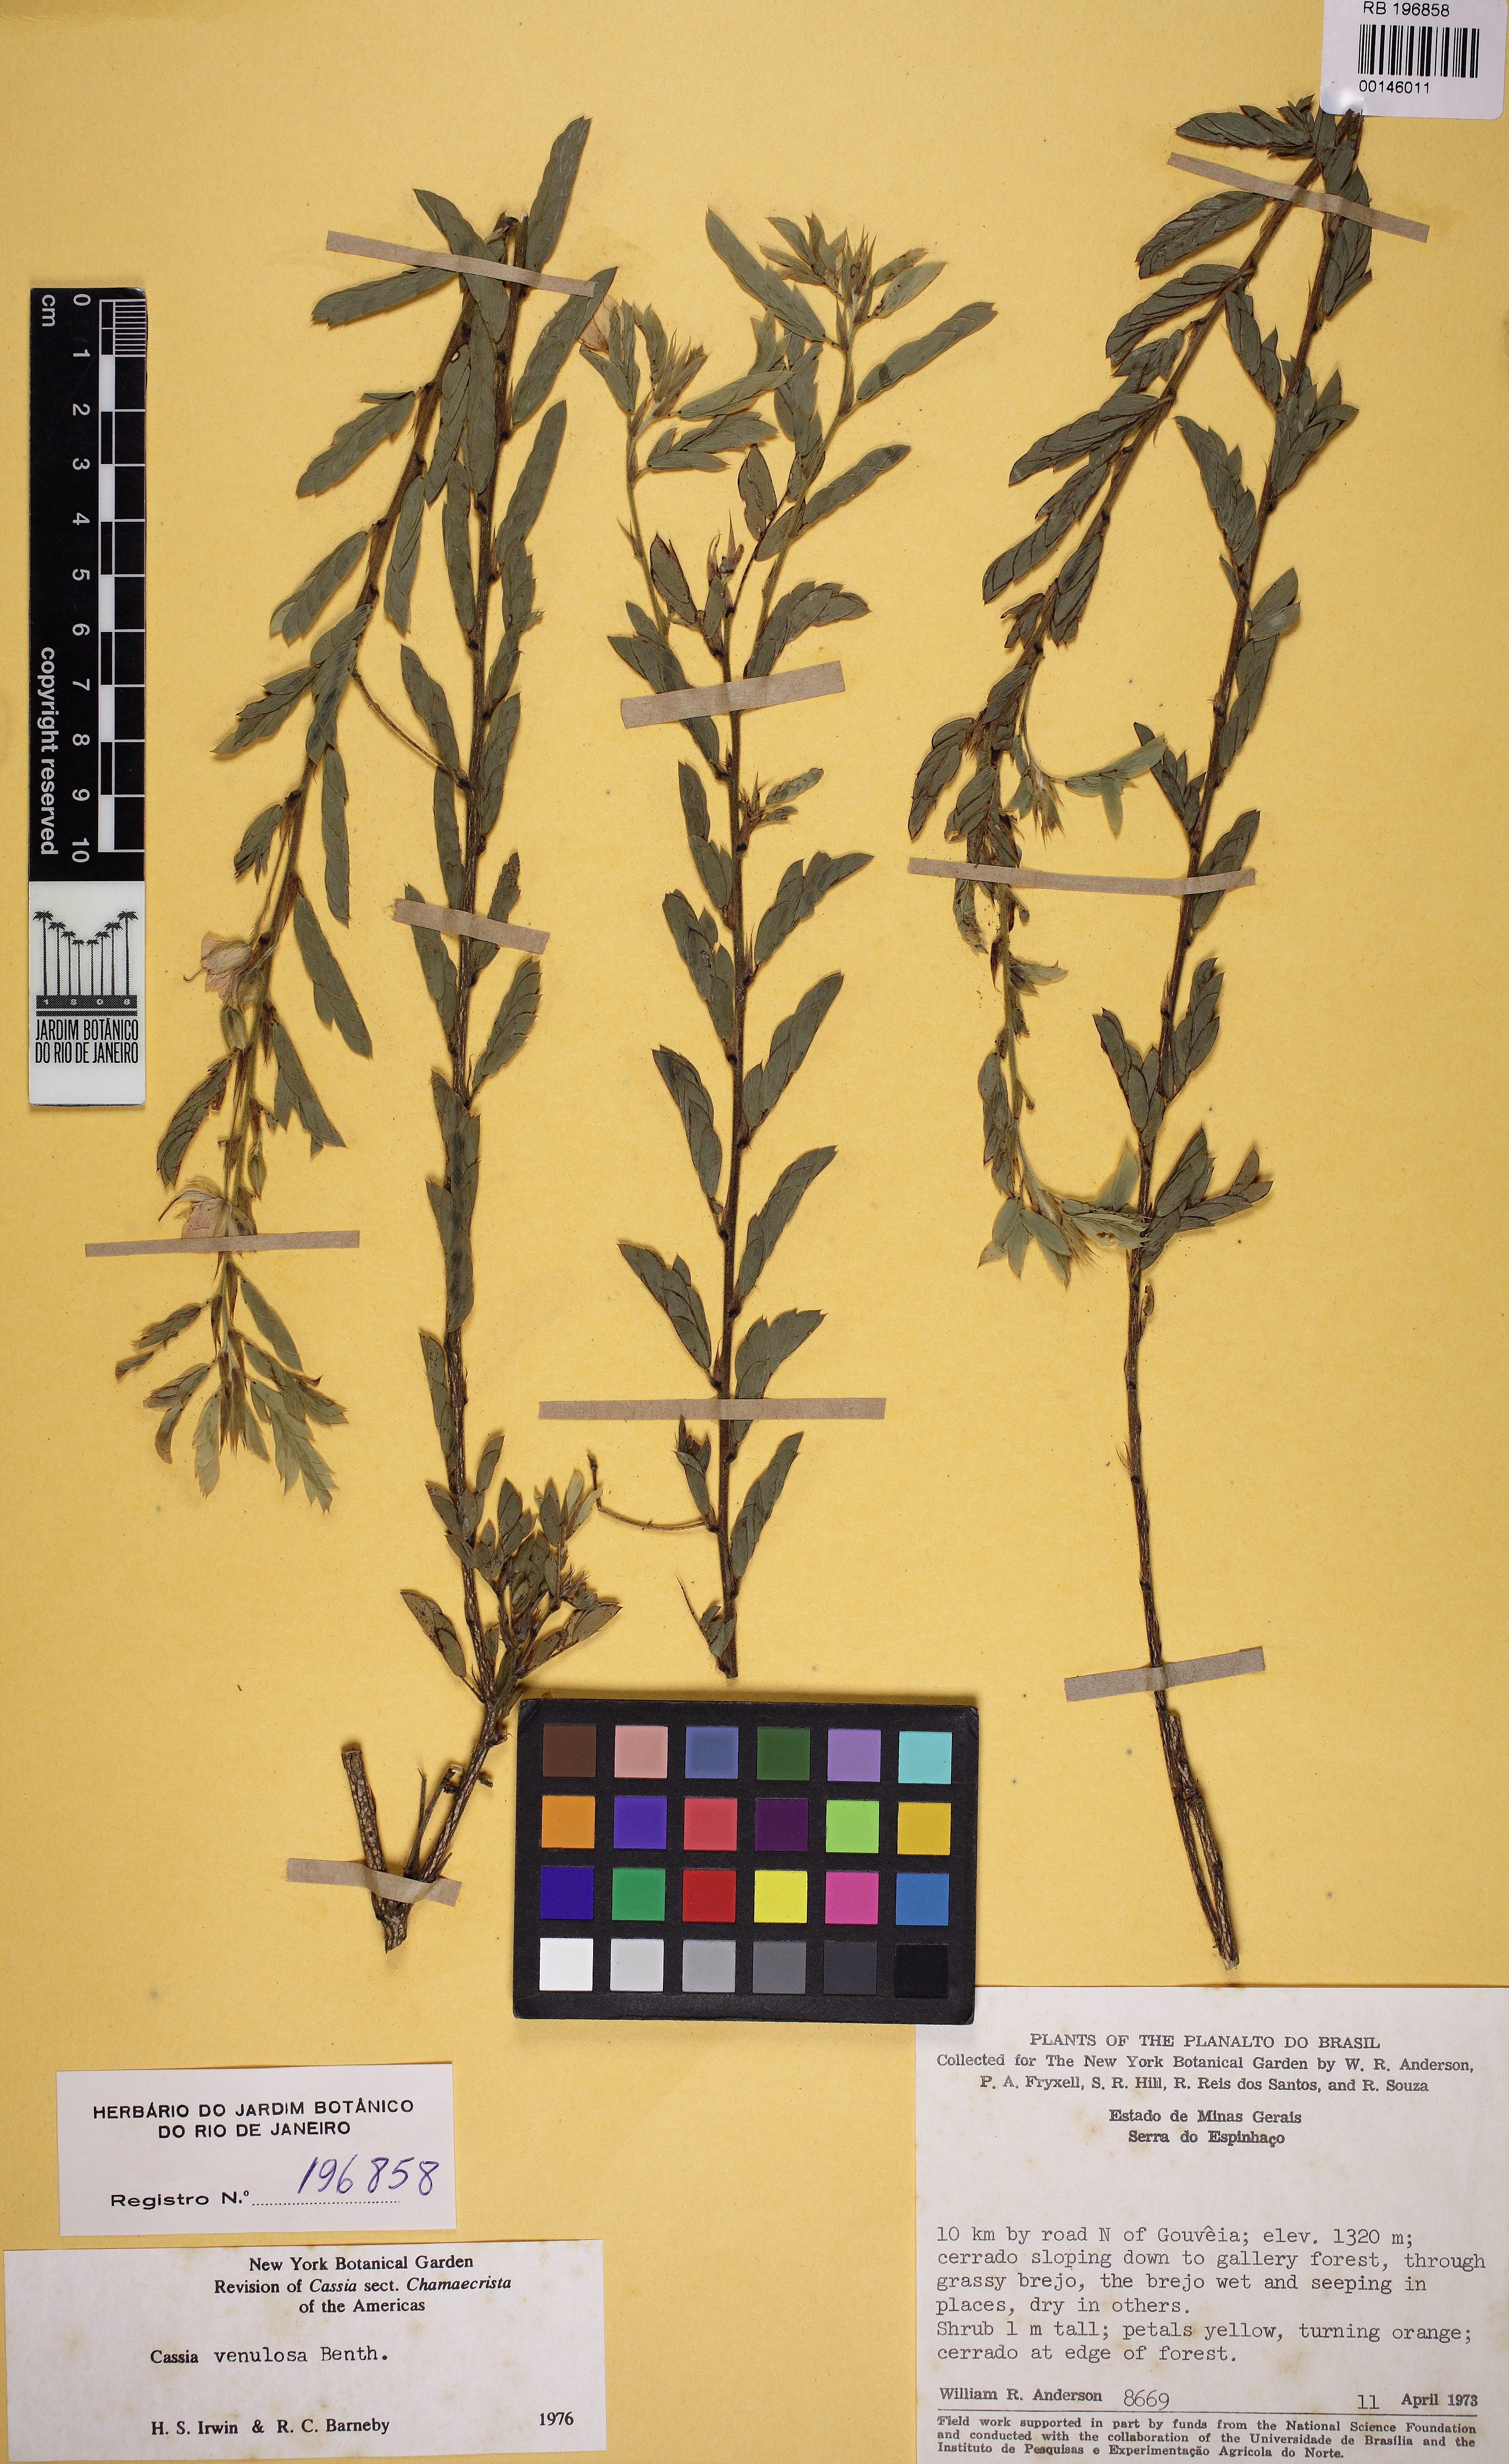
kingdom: Plantae
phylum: Tracheophyta
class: Magnoliopsida
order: Fabales
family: Fabaceae
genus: Chamaecrista
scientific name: Chamaecrista venulosa
